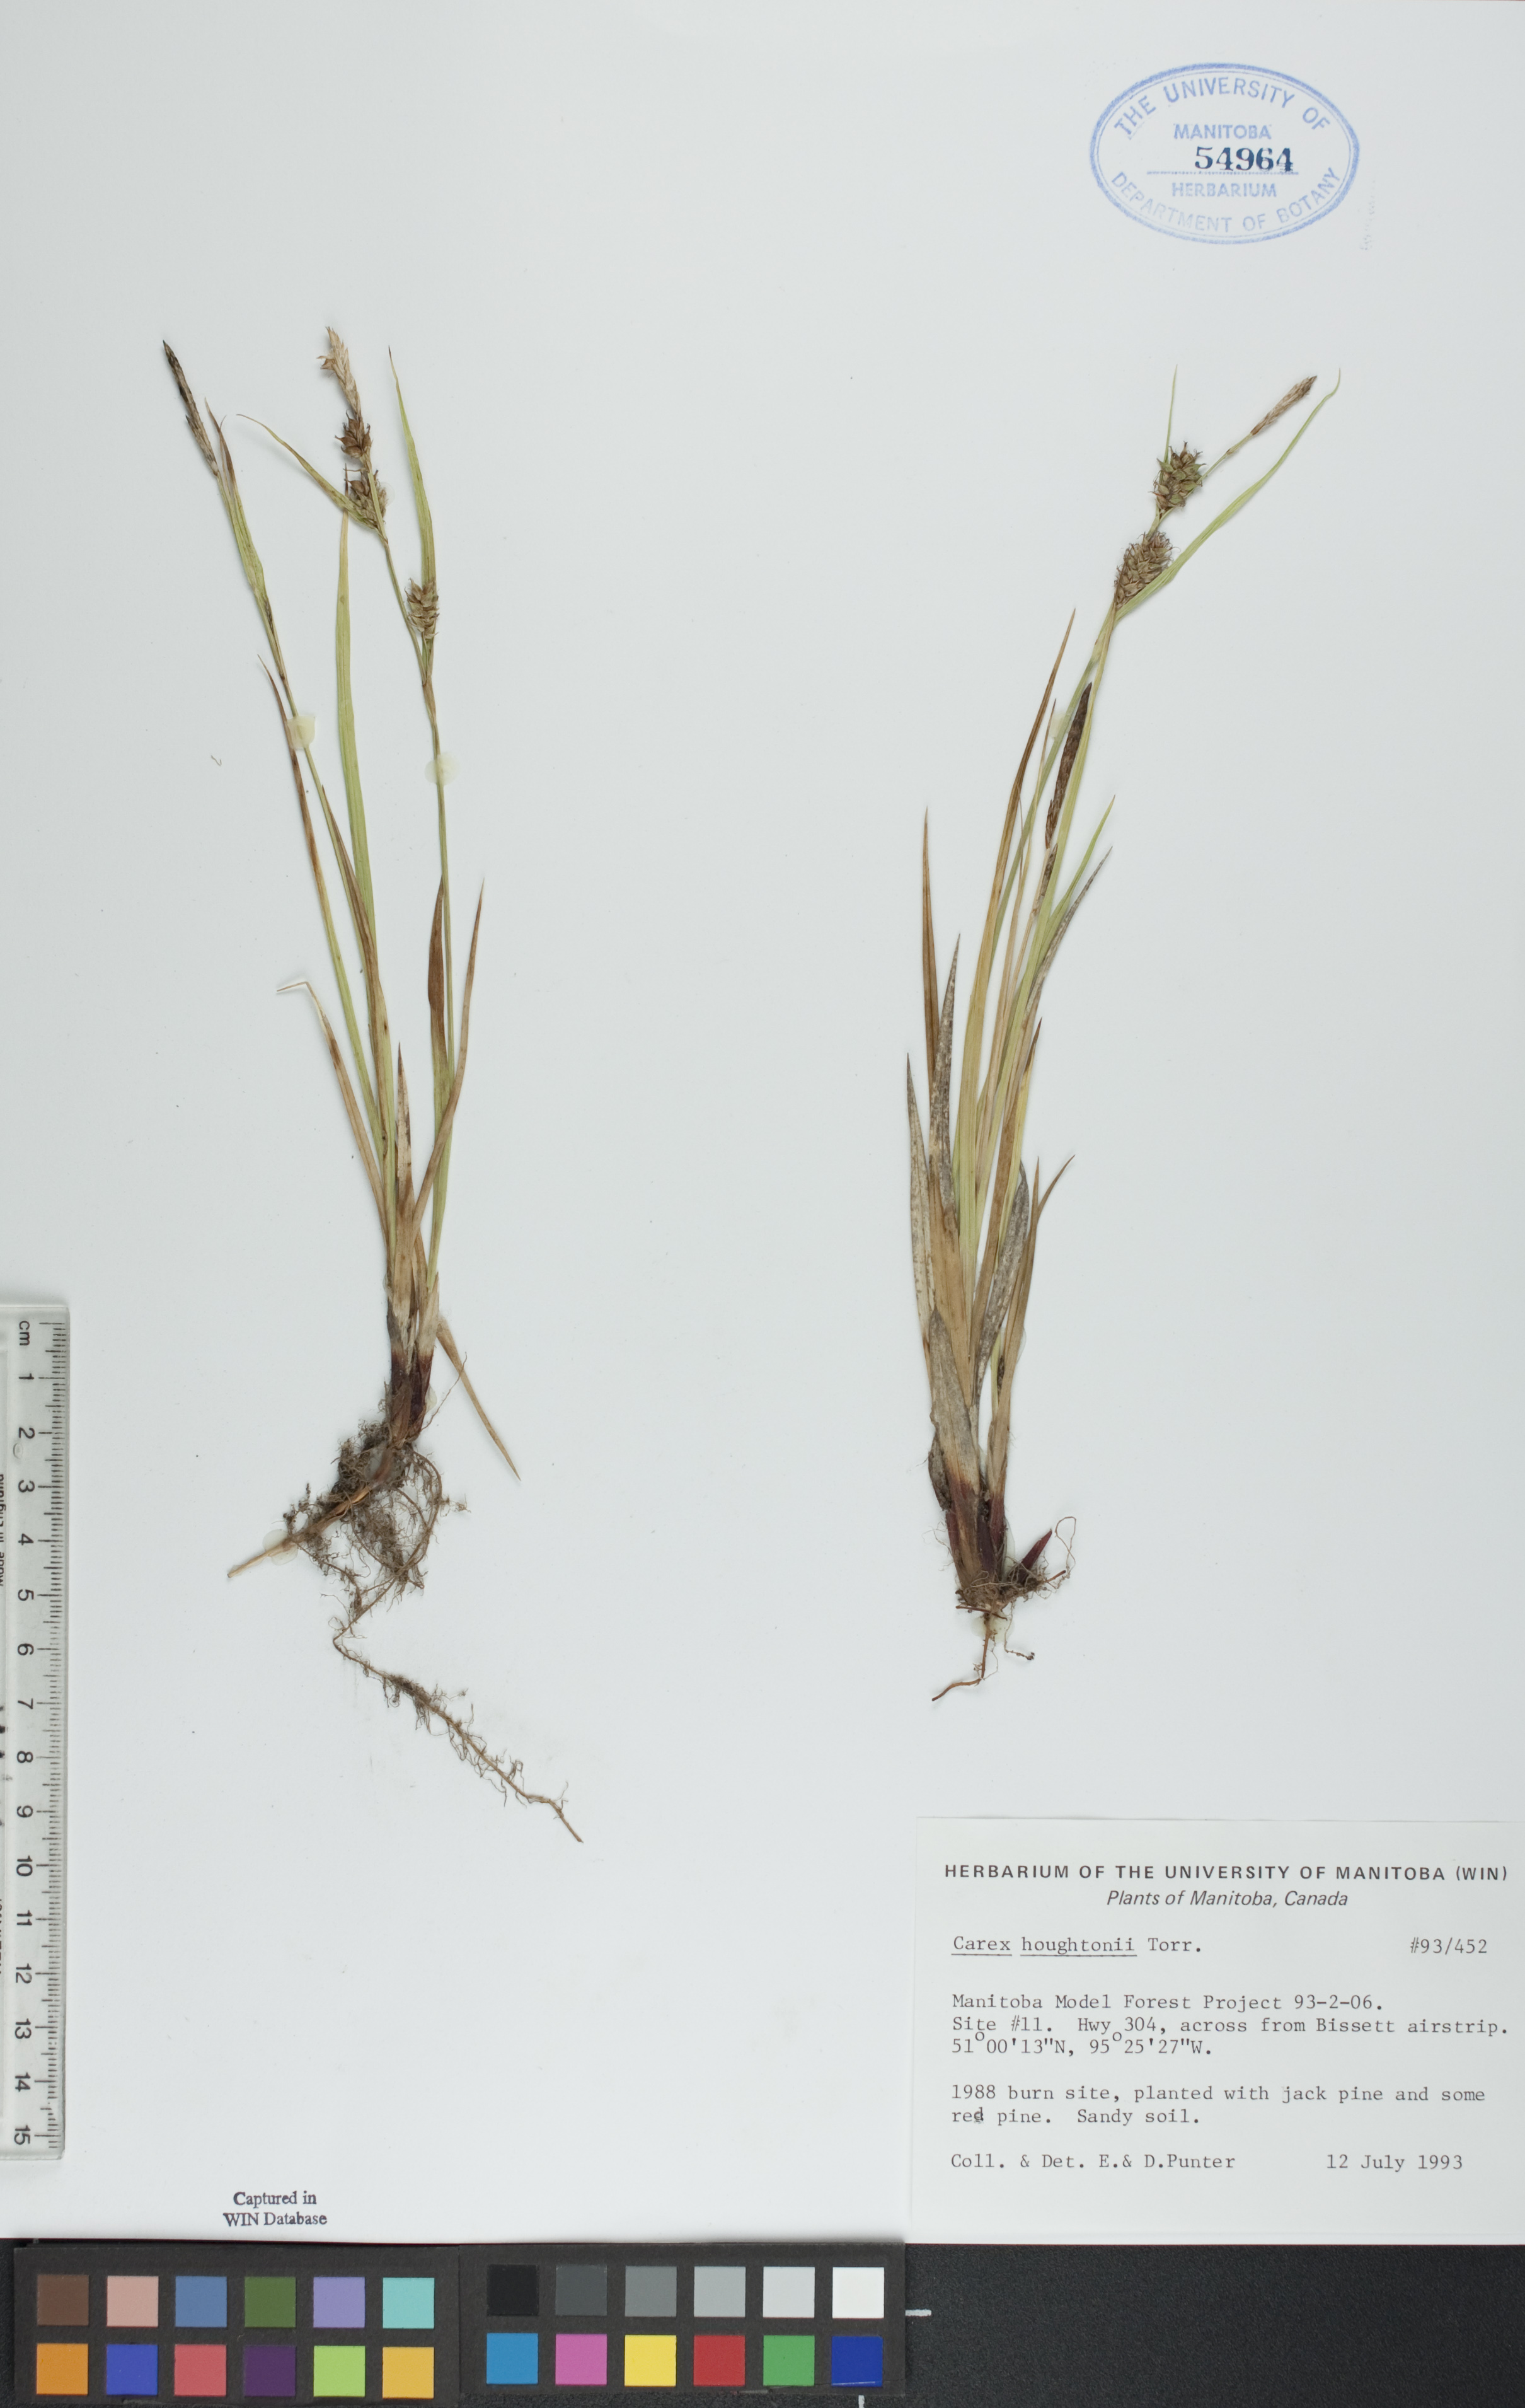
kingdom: Plantae
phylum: Tracheophyta
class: Liliopsida
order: Poales
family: Cyperaceae
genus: Carex
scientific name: Carex houghtoniana
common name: Houghton's sedge
